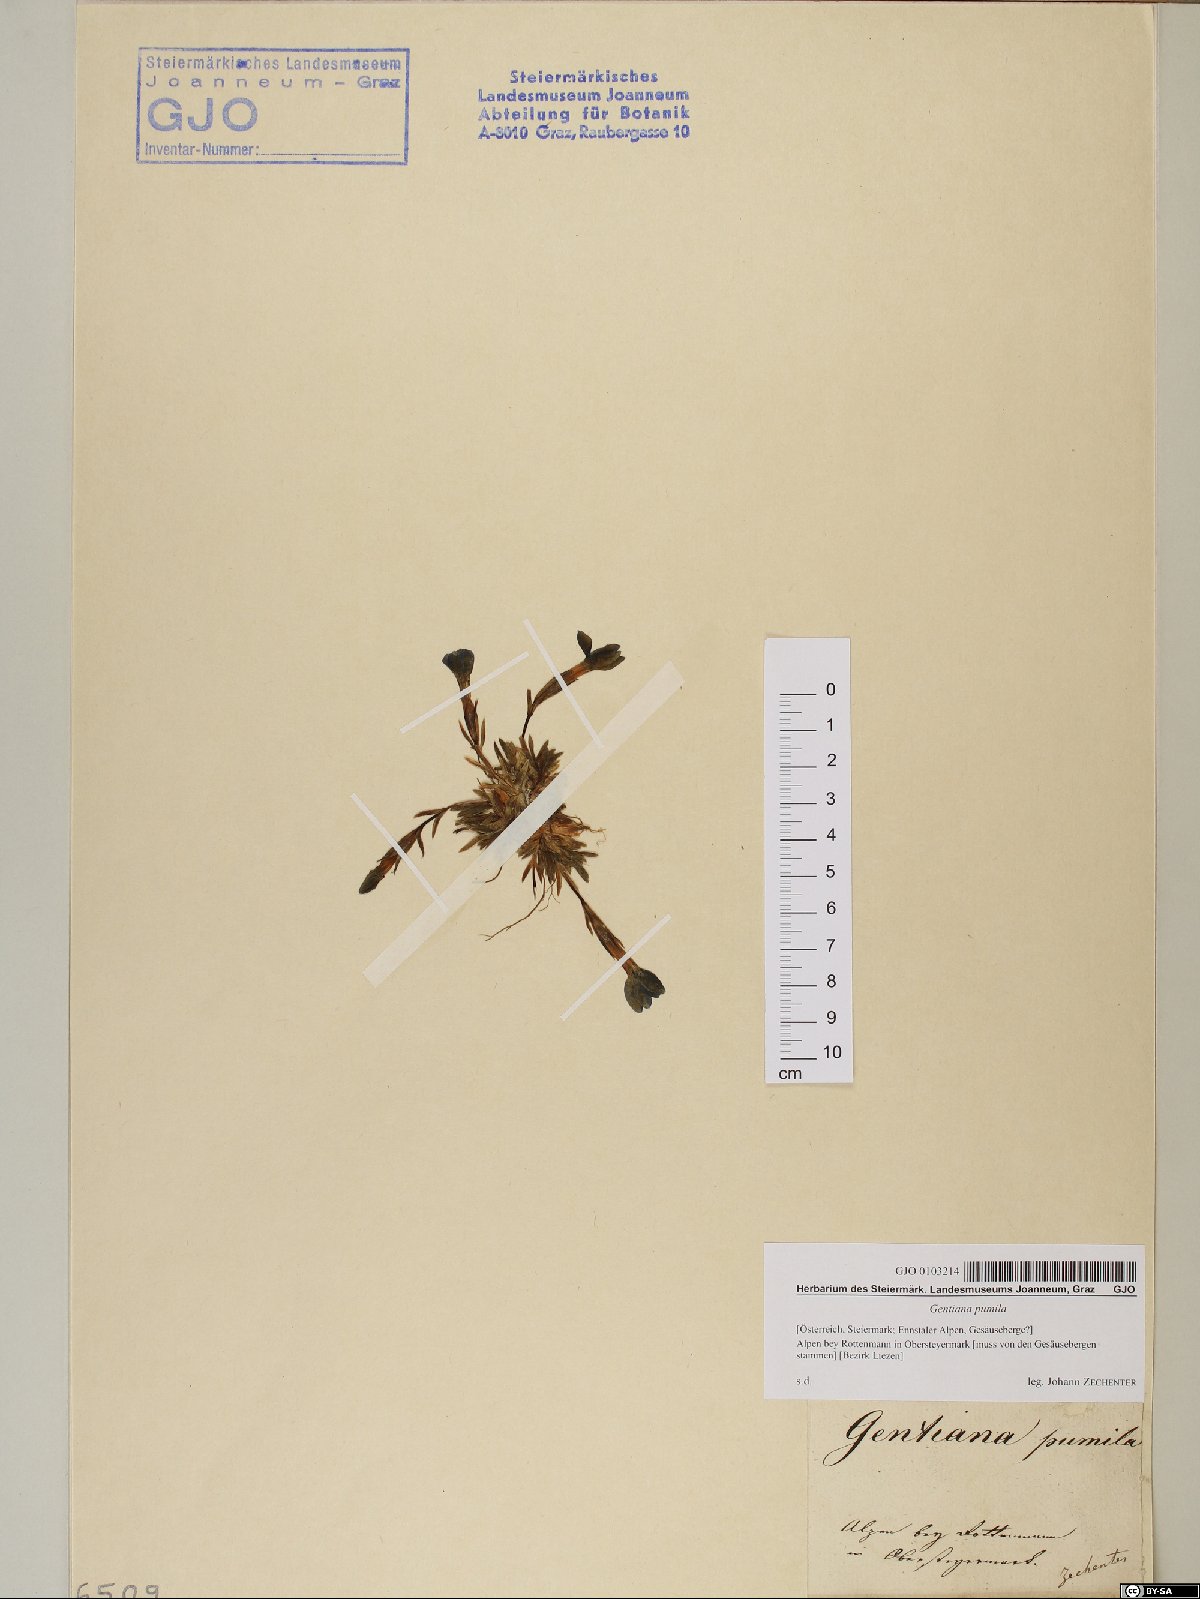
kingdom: Plantae
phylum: Tracheophyta
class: Magnoliopsida
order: Gentianales
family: Gentianaceae
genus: Gentiana
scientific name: Gentiana pumila
